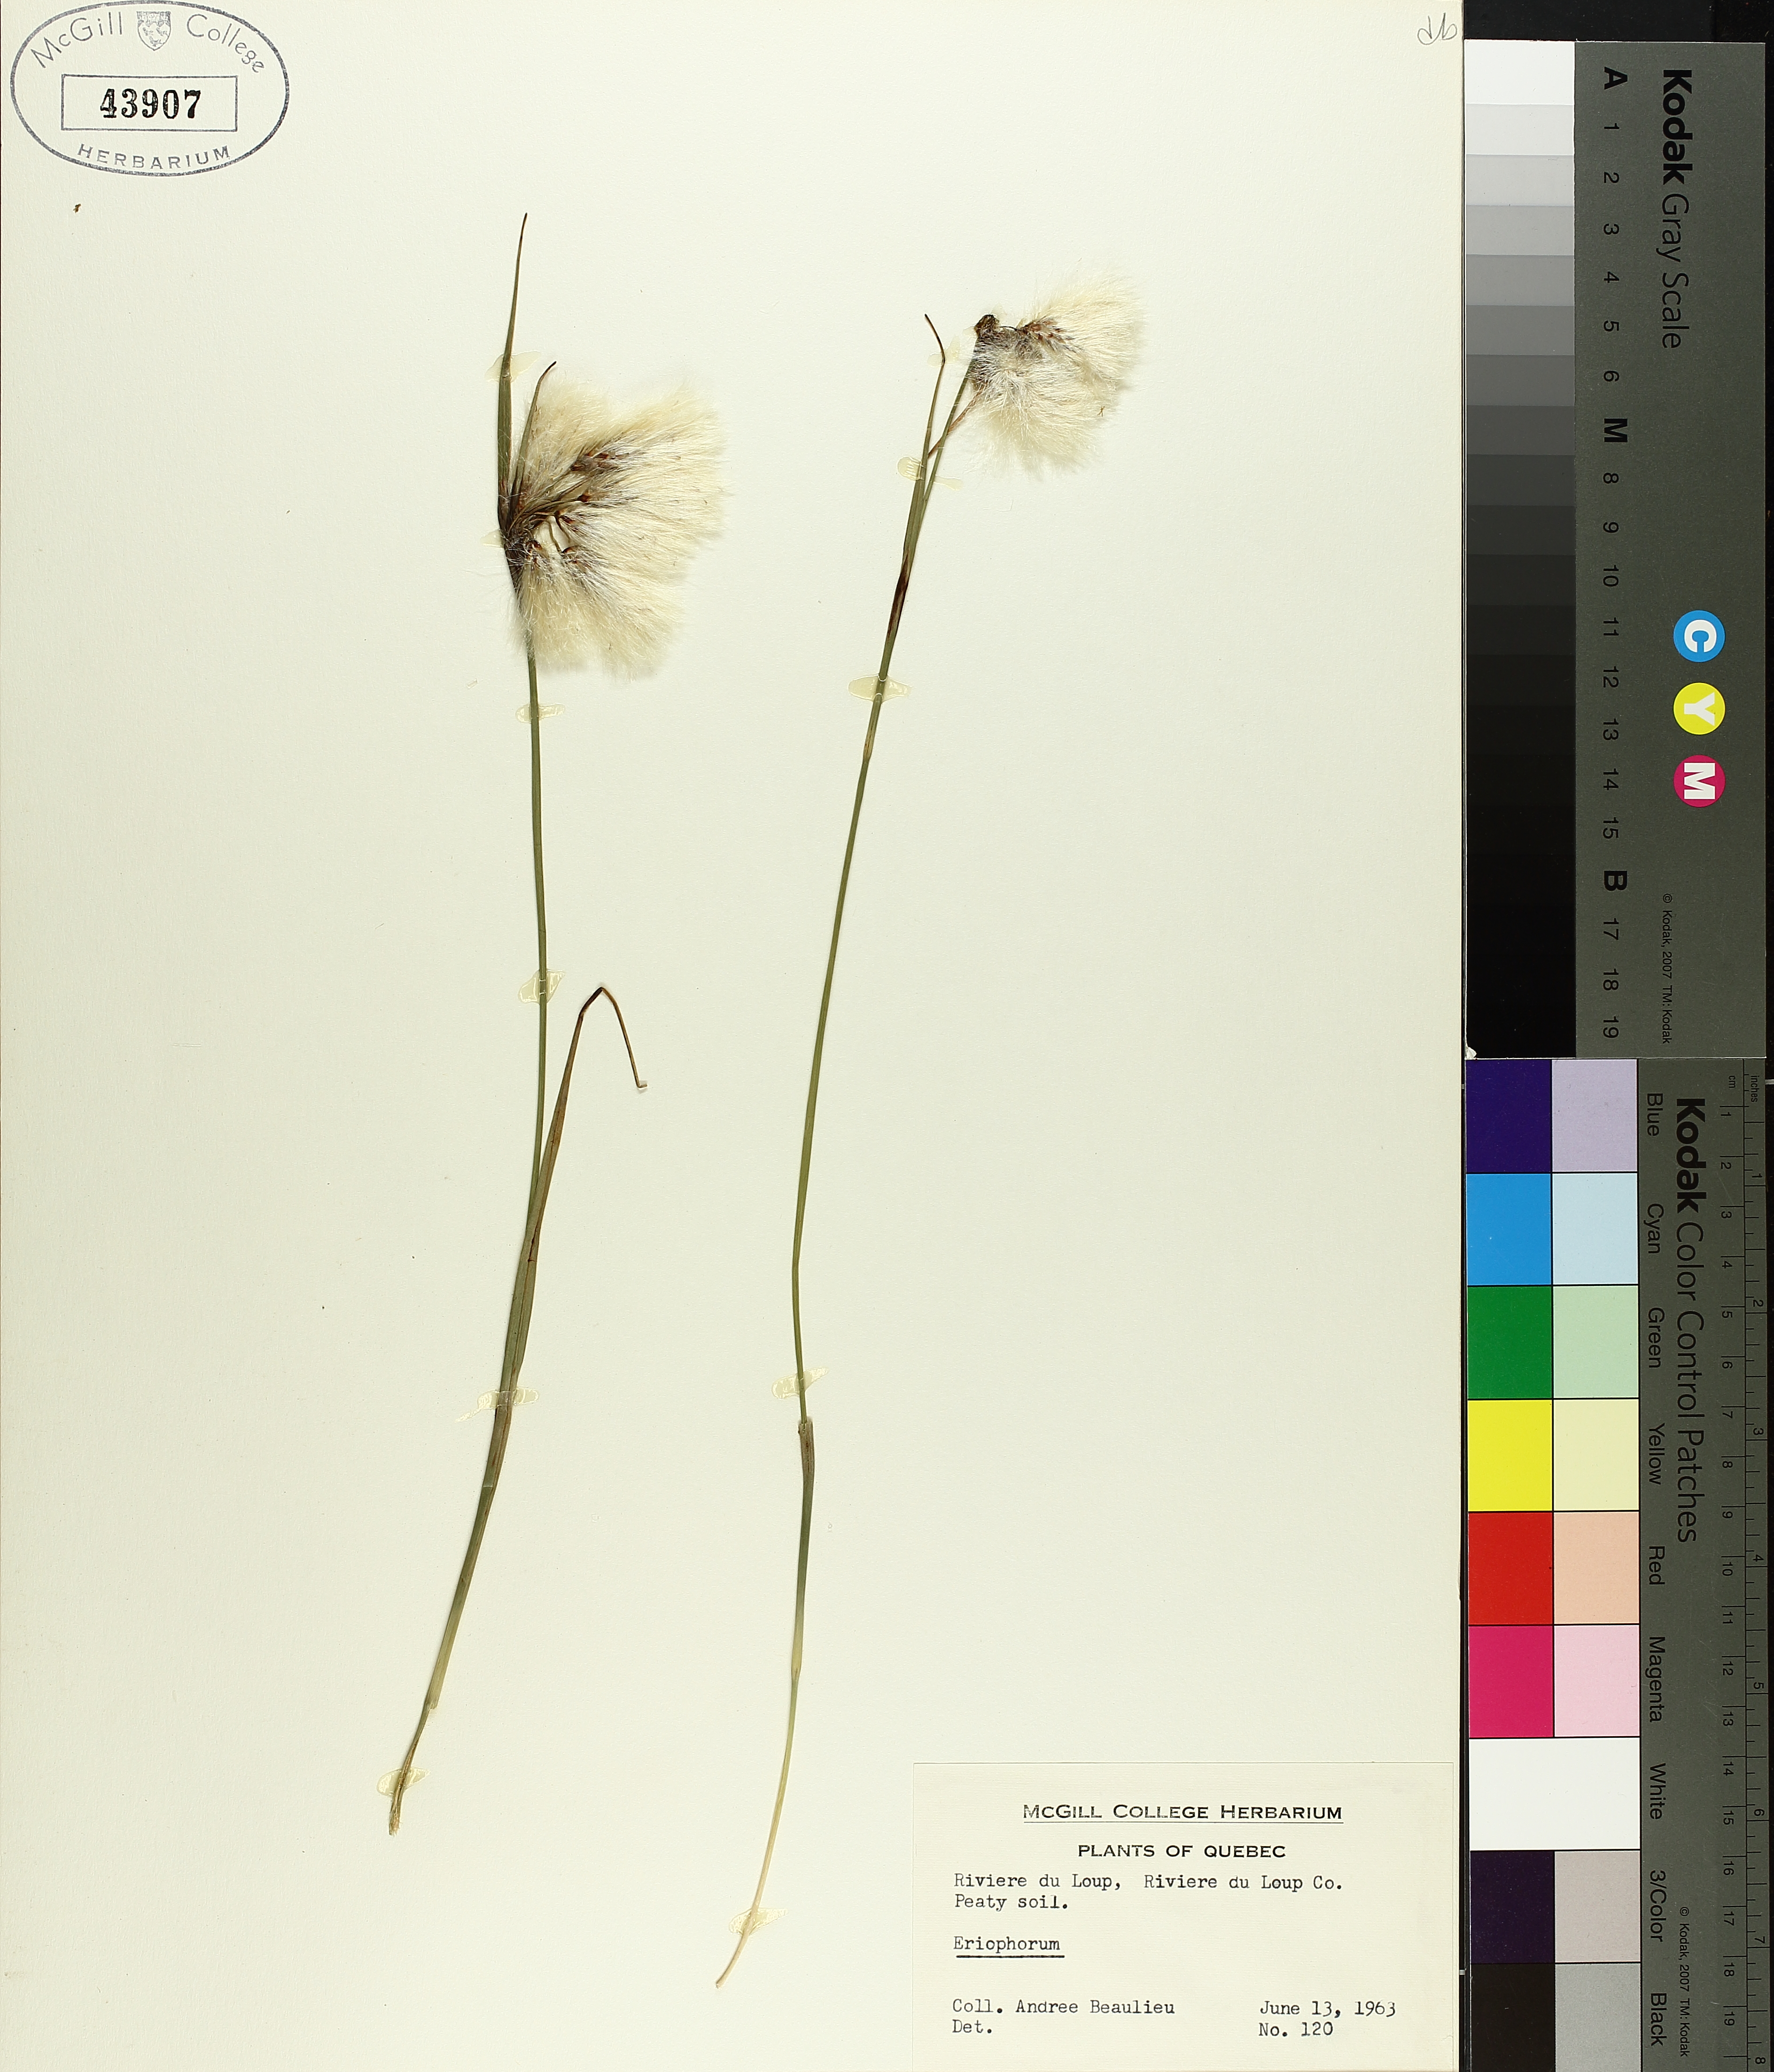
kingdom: Plantae
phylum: Tracheophyta
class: Liliopsida
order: Poales
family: Cyperaceae
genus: Eriophorum
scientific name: Eriophorum triste
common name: Tall cottongrass
